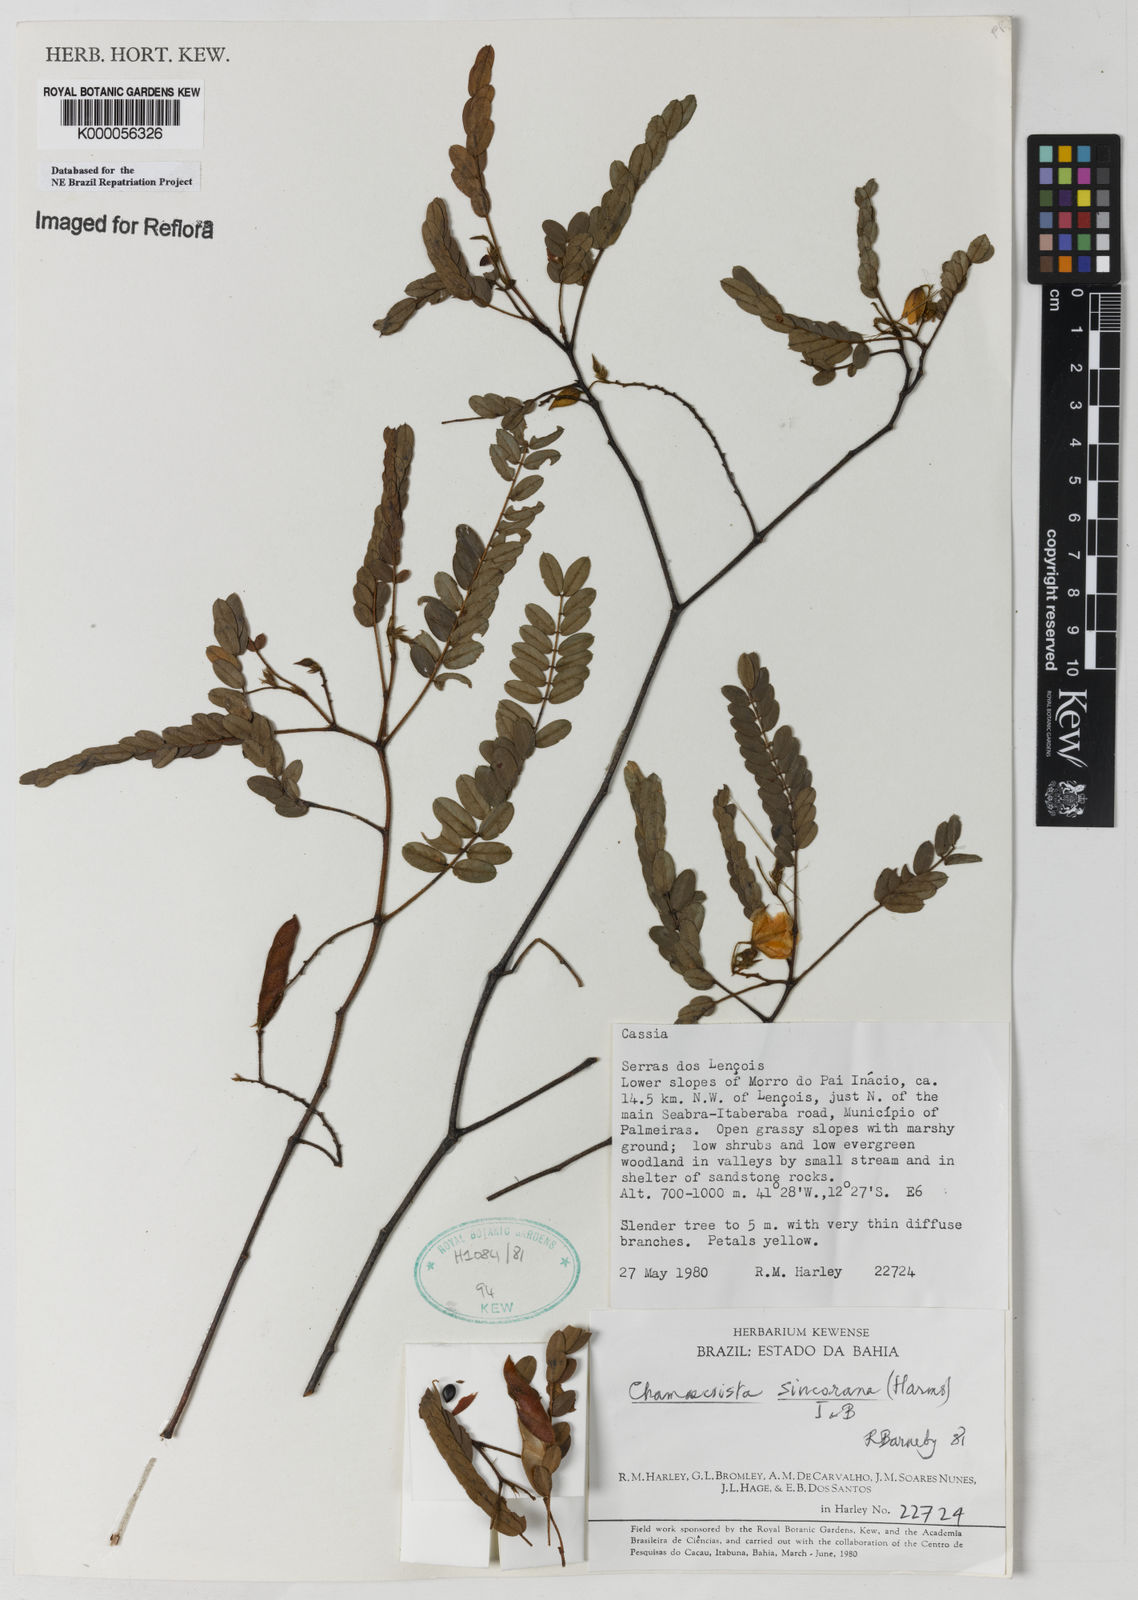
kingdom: Plantae
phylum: Tracheophyta
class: Magnoliopsida
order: Fabales
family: Fabaceae
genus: Chamaecrista
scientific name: Chamaecrista sincorana
